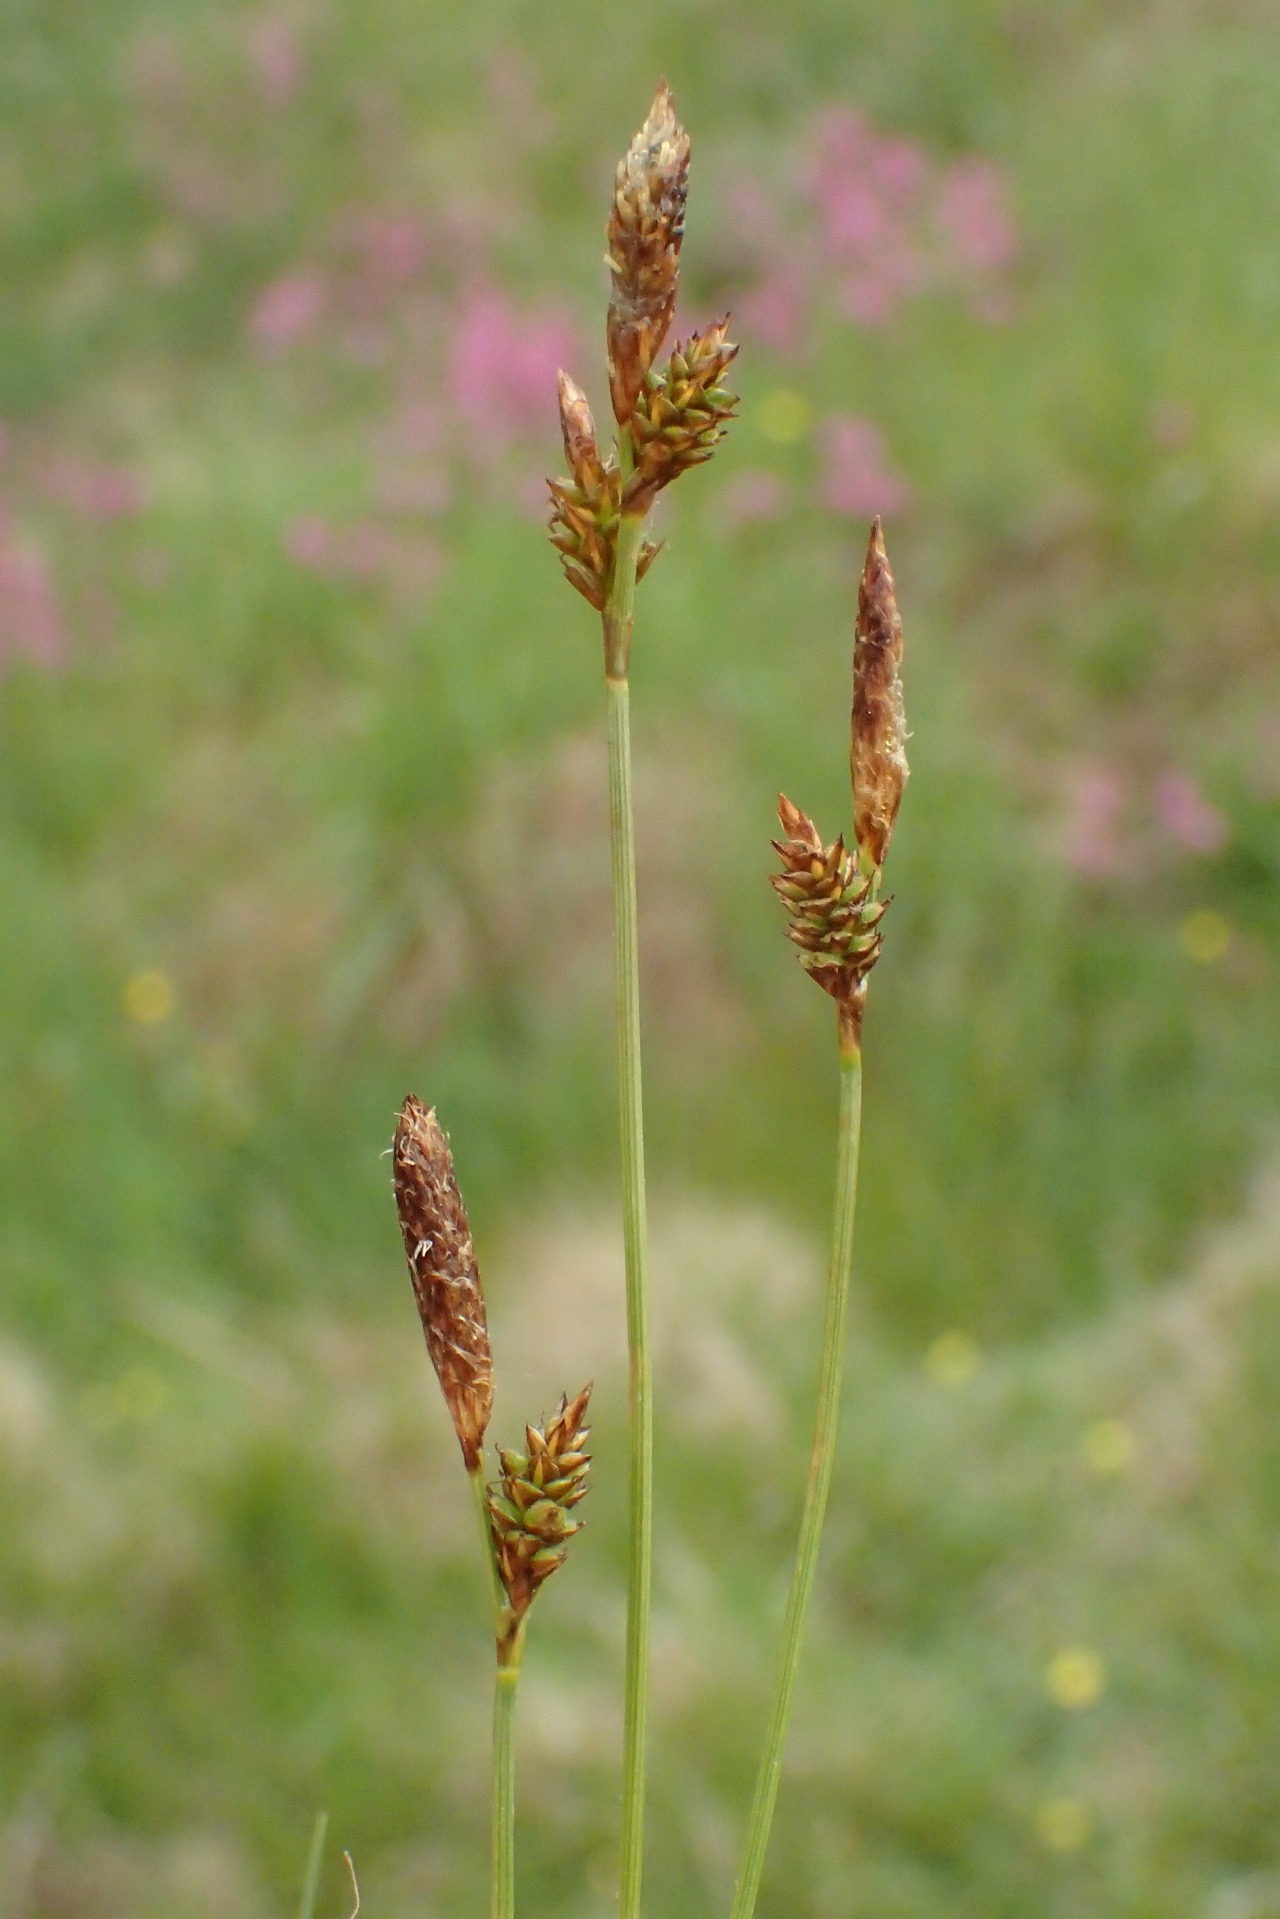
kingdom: Plantae
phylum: Tracheophyta
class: Liliopsida
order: Poales
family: Cyperaceae
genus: Carex
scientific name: Carex caryophyllea
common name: Vår-star
